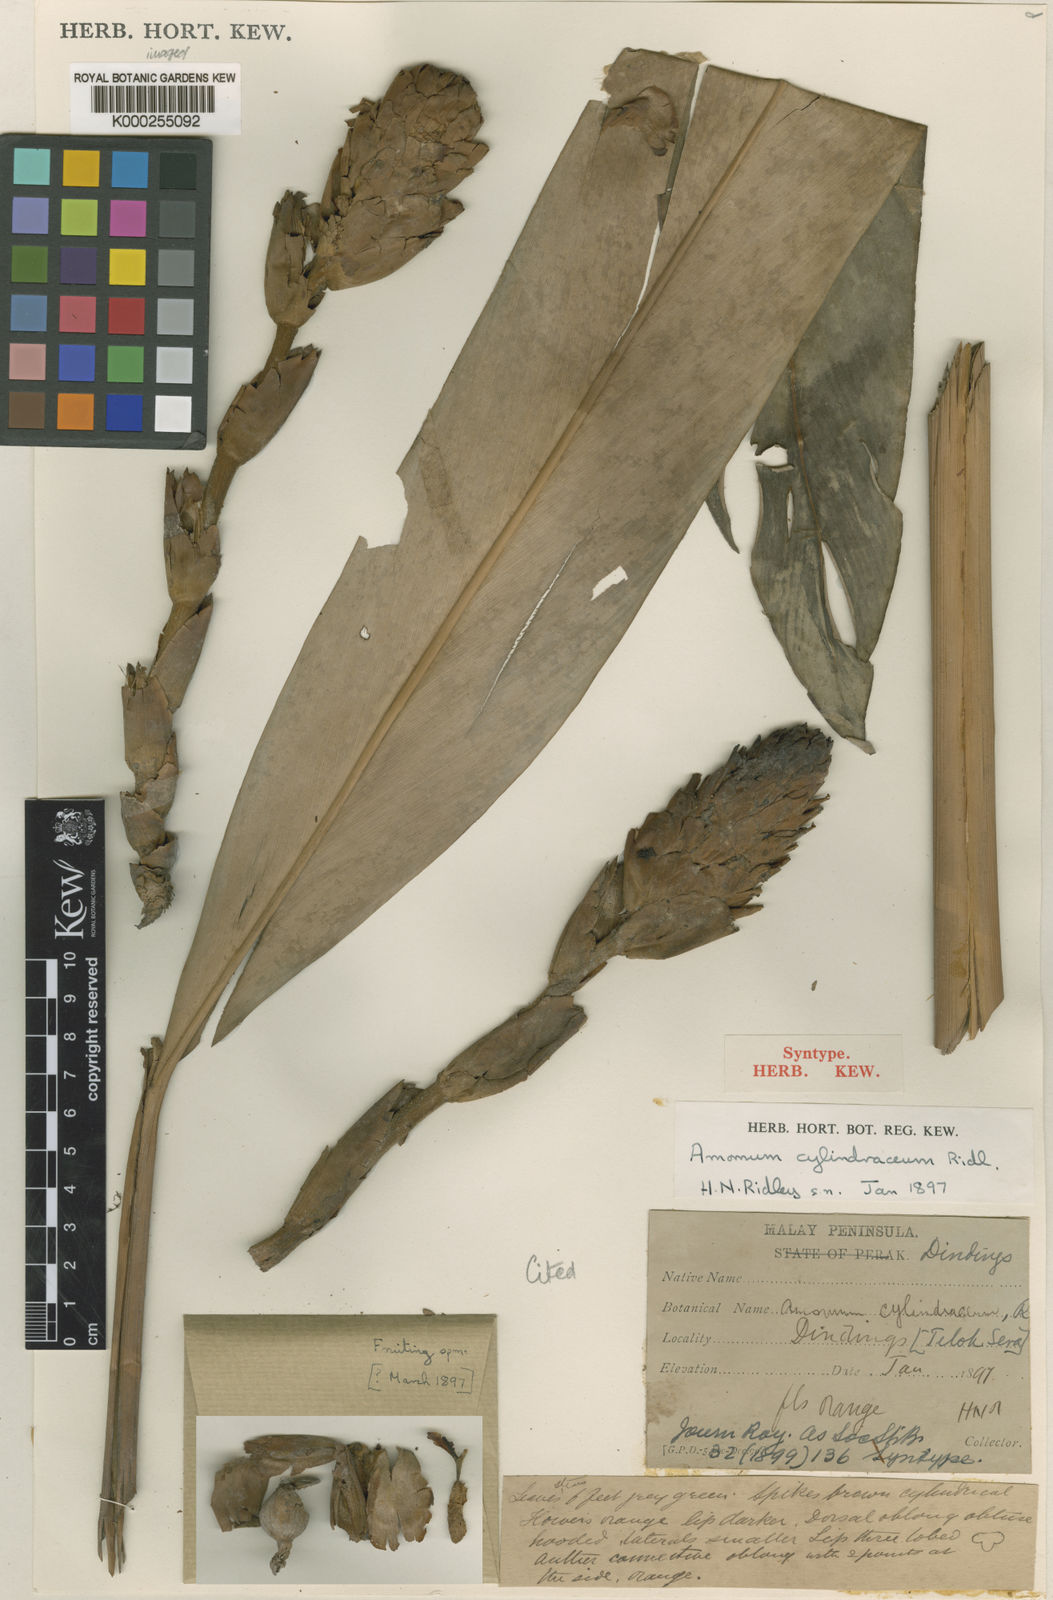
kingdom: Plantae
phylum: Tracheophyta
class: Liliopsida
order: Zingiberales
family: Zingiberaceae
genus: Conamomum
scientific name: Conamomum cylindraceum
